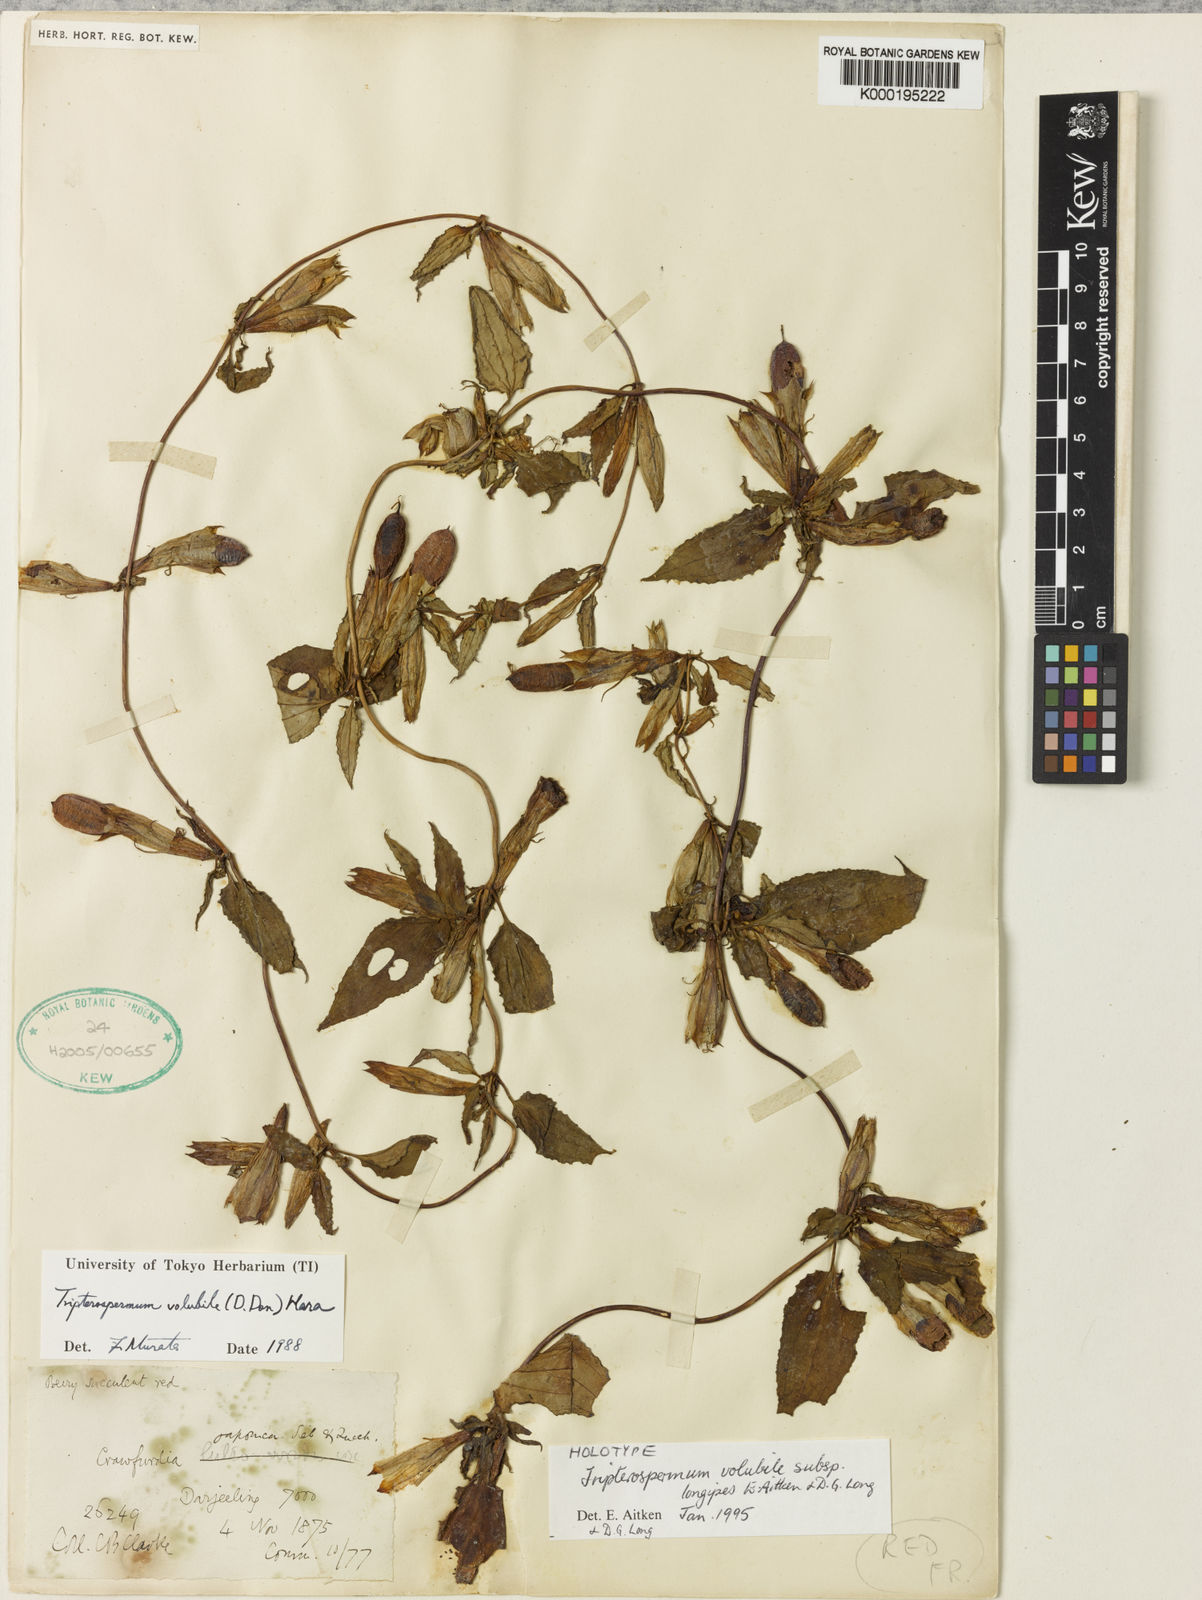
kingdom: Plantae
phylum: Tracheophyta
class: Magnoliopsida
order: Gentianales
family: Gentianaceae
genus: Tripterospermum
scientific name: Tripterospermum volubile
